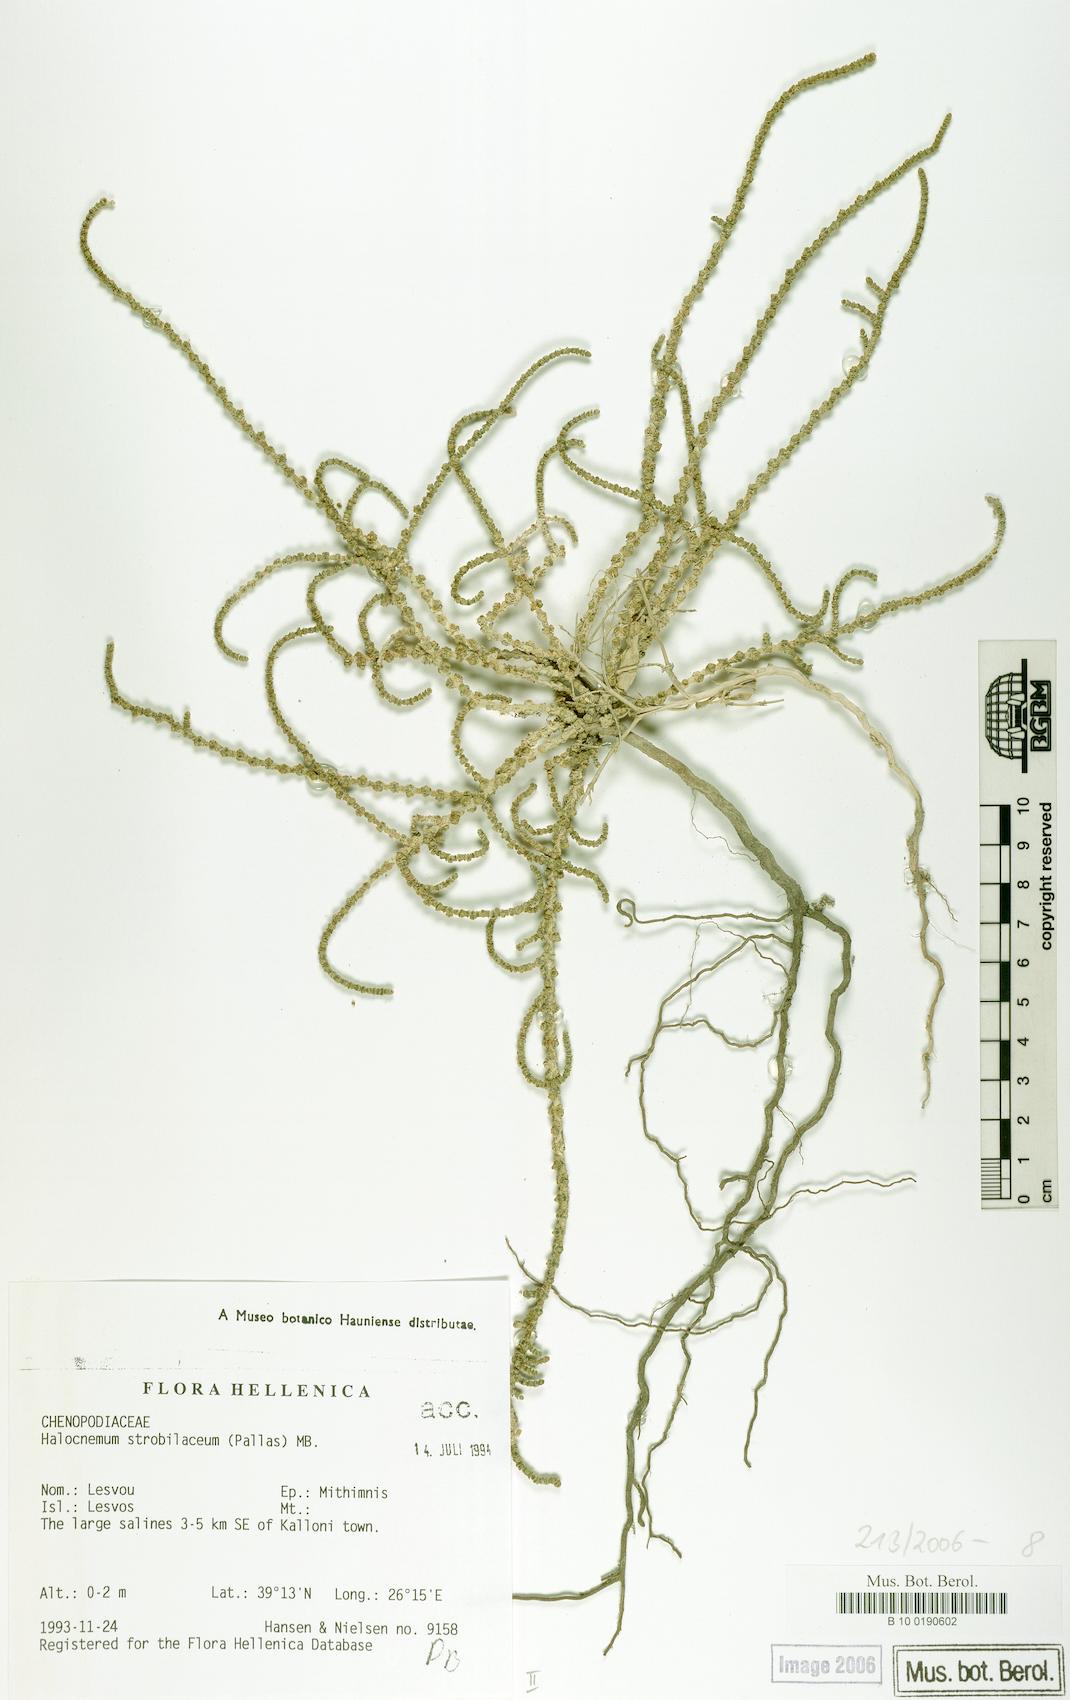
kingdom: Plantae
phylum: Tracheophyta
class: Magnoliopsida
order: Caryophyllales
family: Amaranthaceae
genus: Halocnemum
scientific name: Halocnemum strobilaceum
